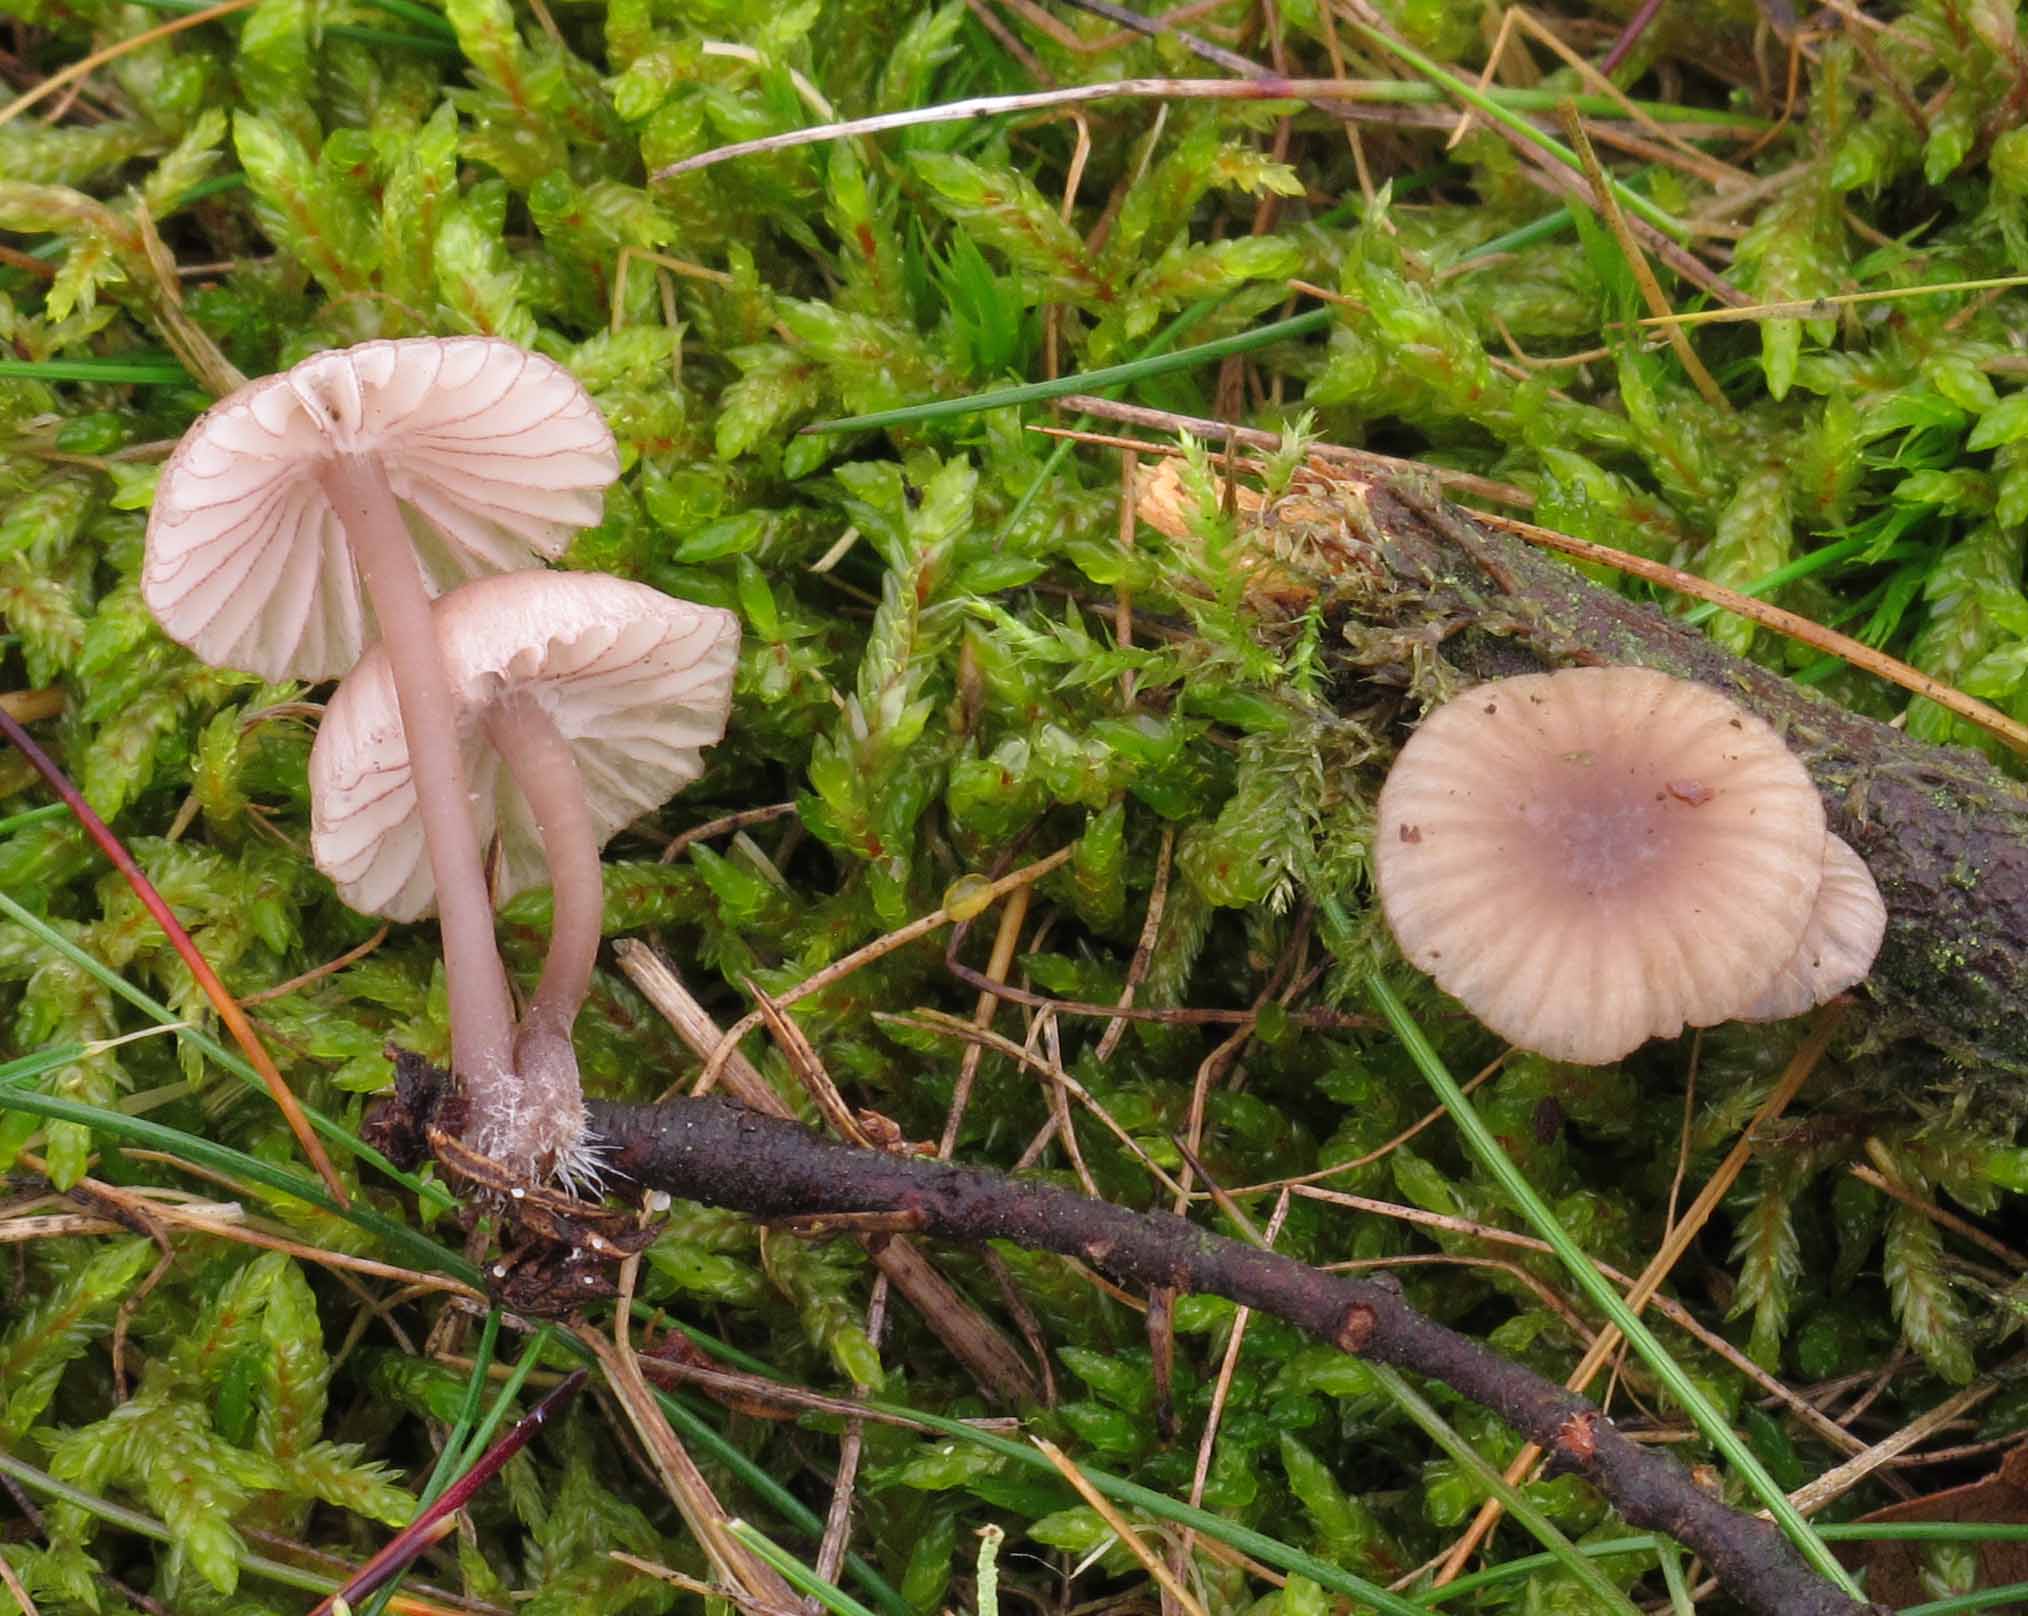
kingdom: Fungi
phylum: Basidiomycota
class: Agaricomycetes
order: Agaricales
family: Mycenaceae
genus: Mycena
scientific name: Mycena rubromarginata
